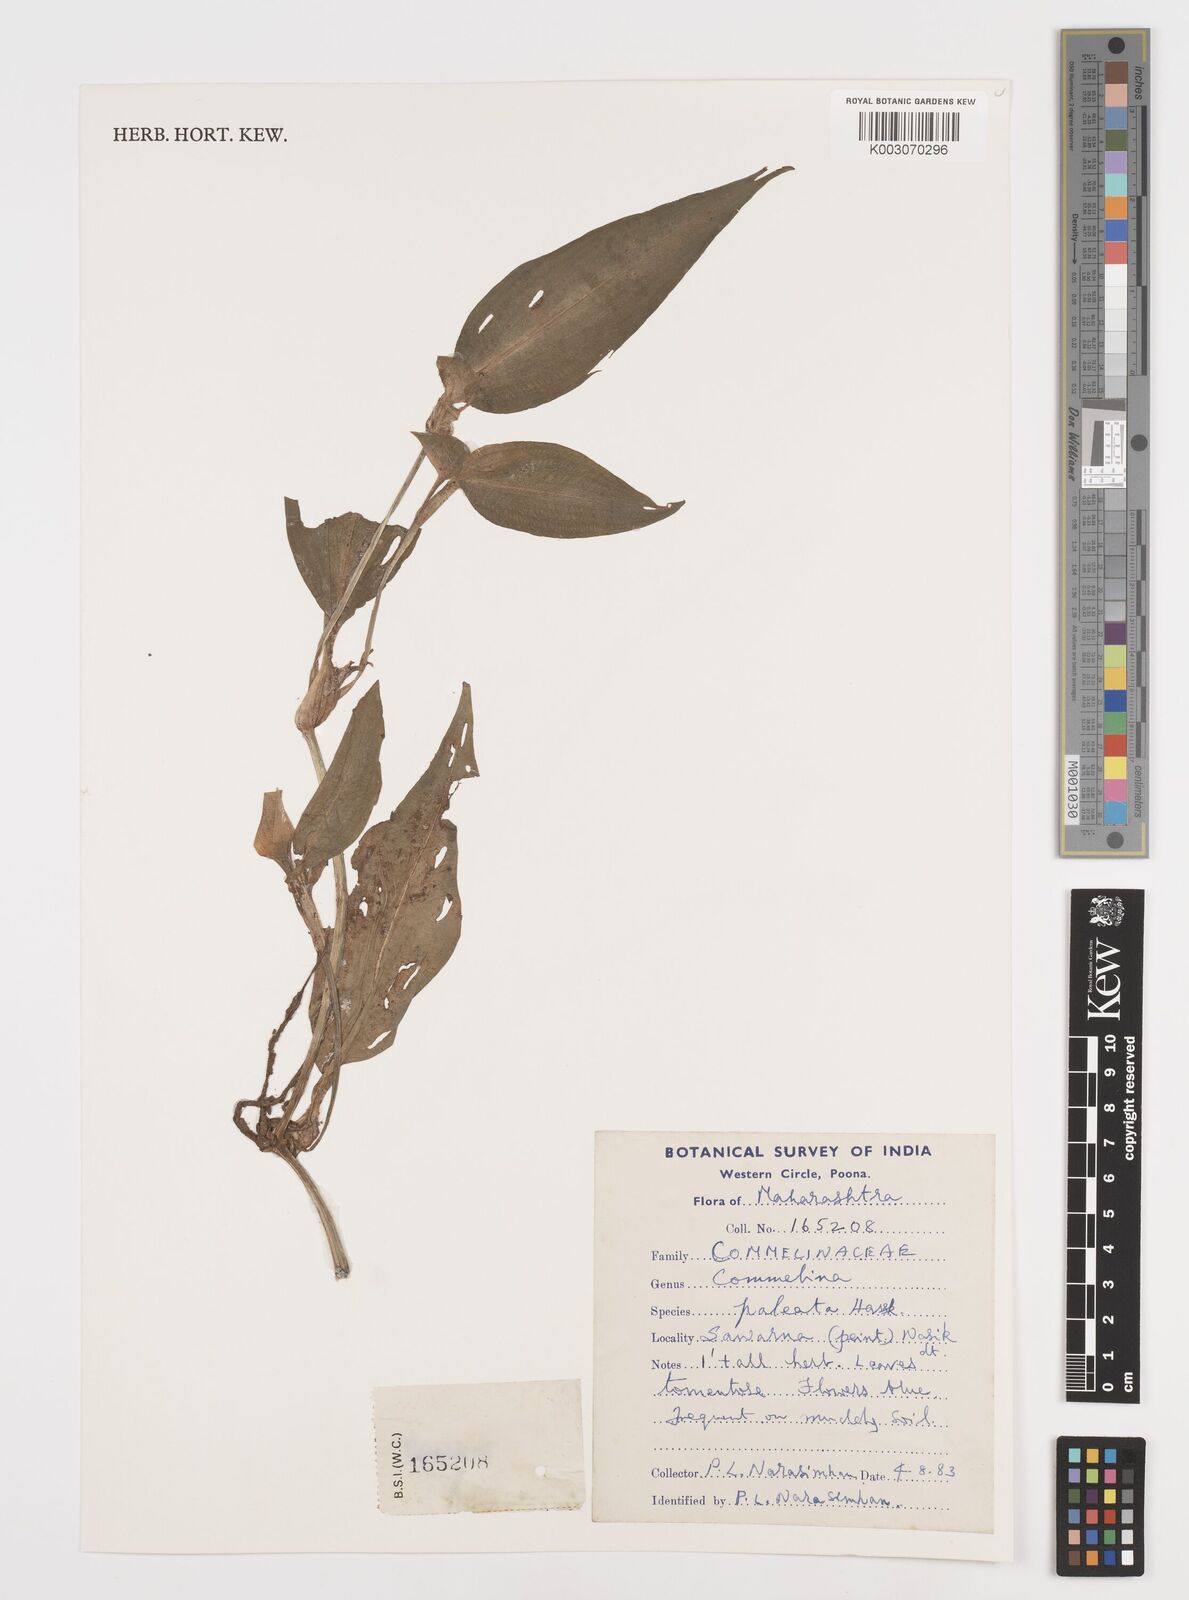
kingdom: Plantae
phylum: Tracheophyta
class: Liliopsida
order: Commelinales
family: Commelinaceae
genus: Commelina
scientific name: Commelina paleata
